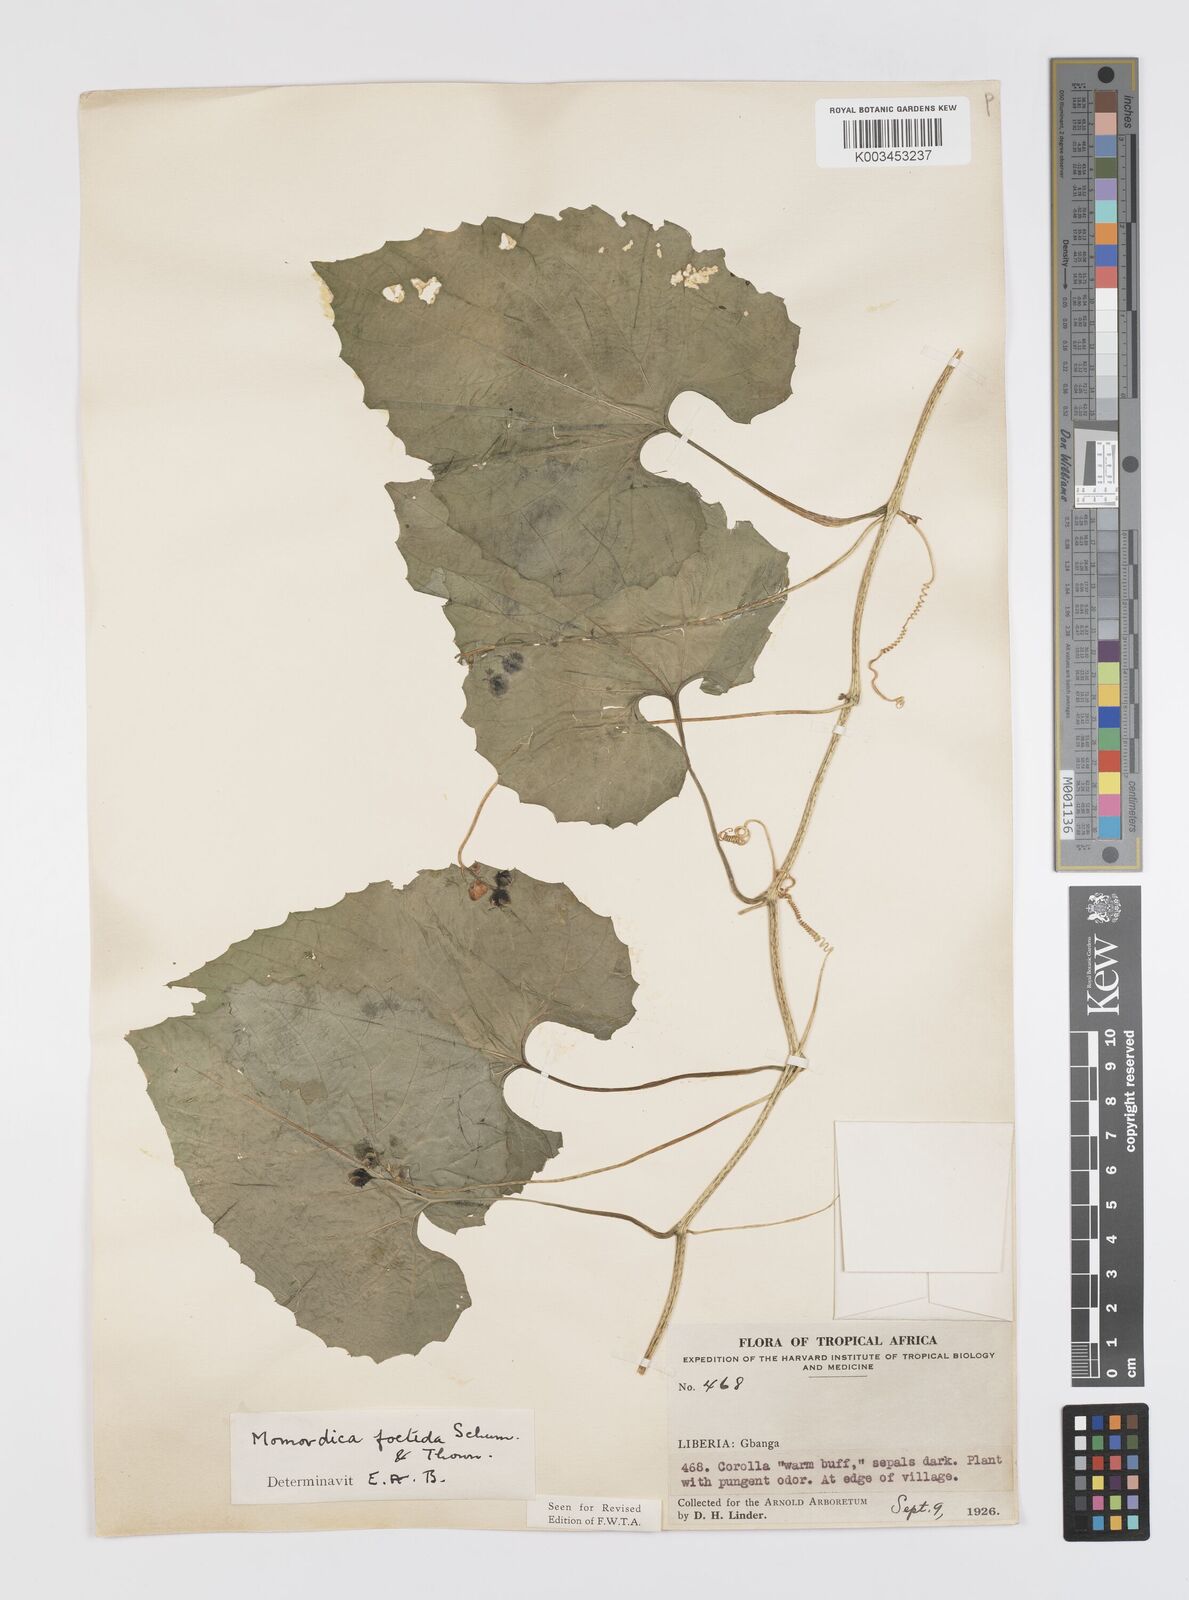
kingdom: Plantae
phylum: Tracheophyta
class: Magnoliopsida
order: Cucurbitales
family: Cucurbitaceae
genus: Momordica
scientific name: Momordica foetida
